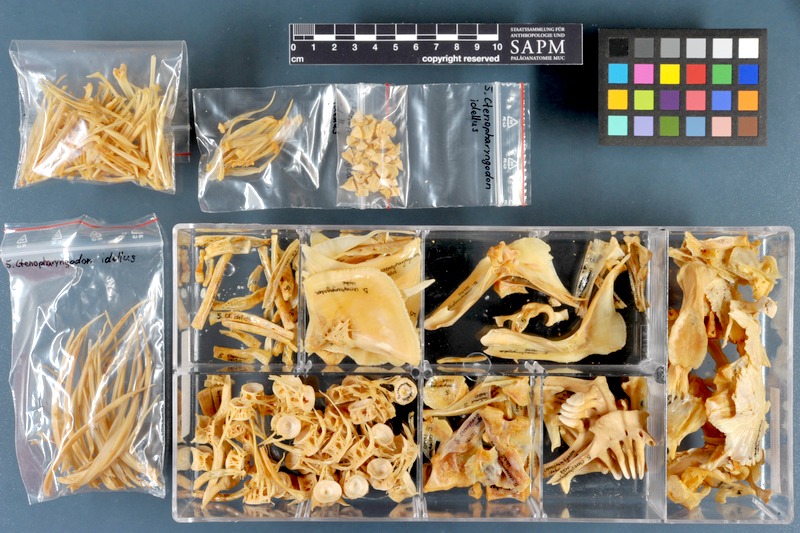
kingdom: Animalia
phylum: Chordata
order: Cypriniformes
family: Cyprinidae
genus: Ctenopharyngodon
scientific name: Ctenopharyngodon idella
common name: Grass carp
